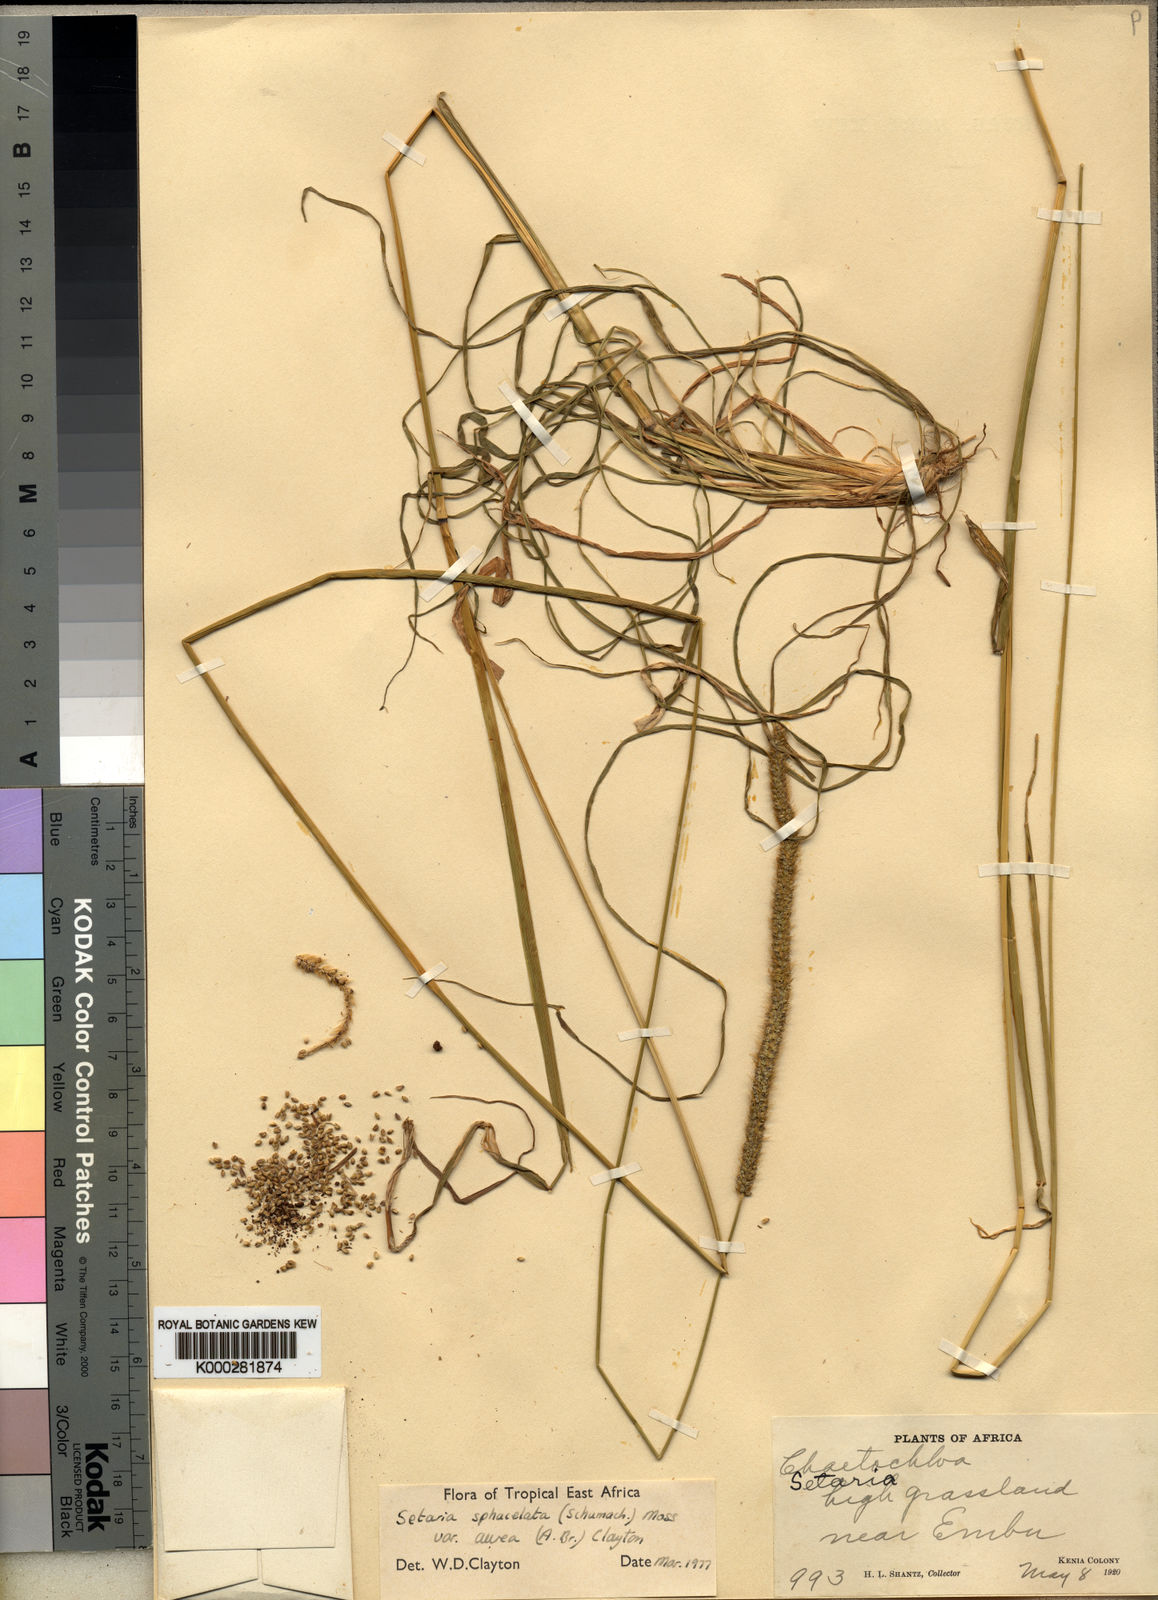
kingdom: Plantae
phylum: Tracheophyta
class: Liliopsida
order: Poales
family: Poaceae
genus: Setaria
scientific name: Setaria sphacelata
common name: African bristlegrass
